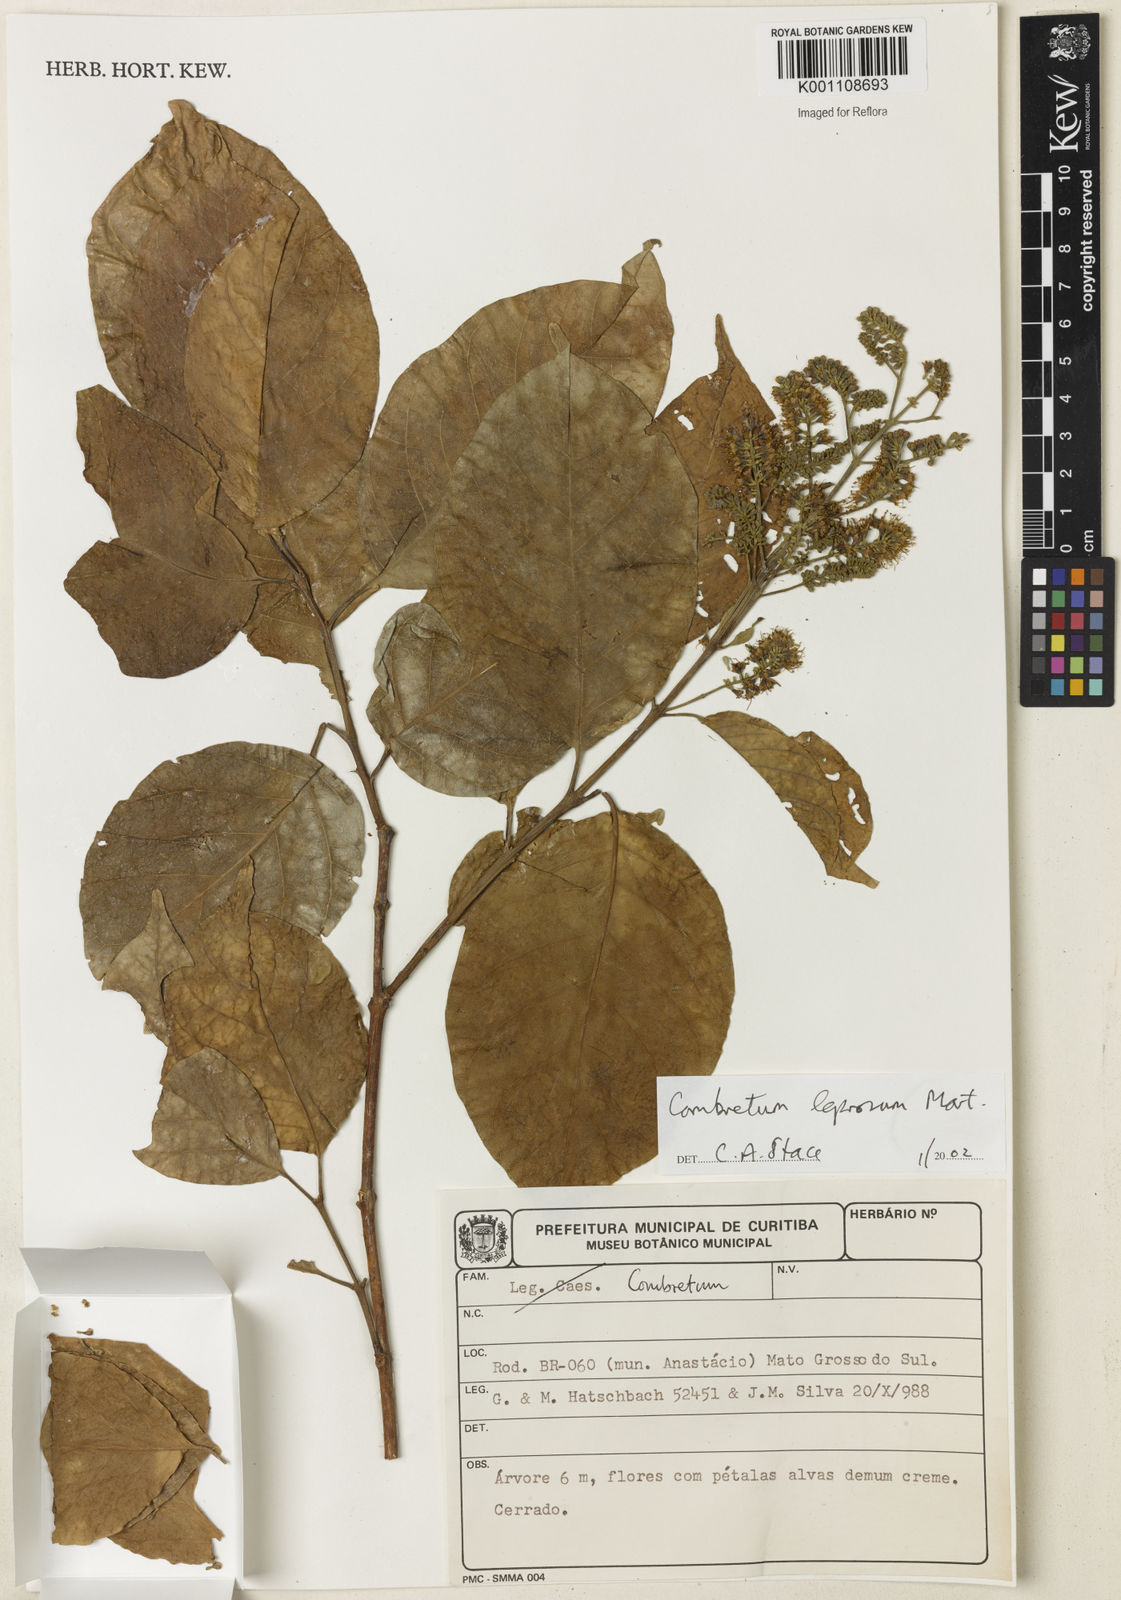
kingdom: Plantae
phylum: Tracheophyta
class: Magnoliopsida
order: Myrtales
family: Combretaceae
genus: Combretum
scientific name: Combretum leprosum
